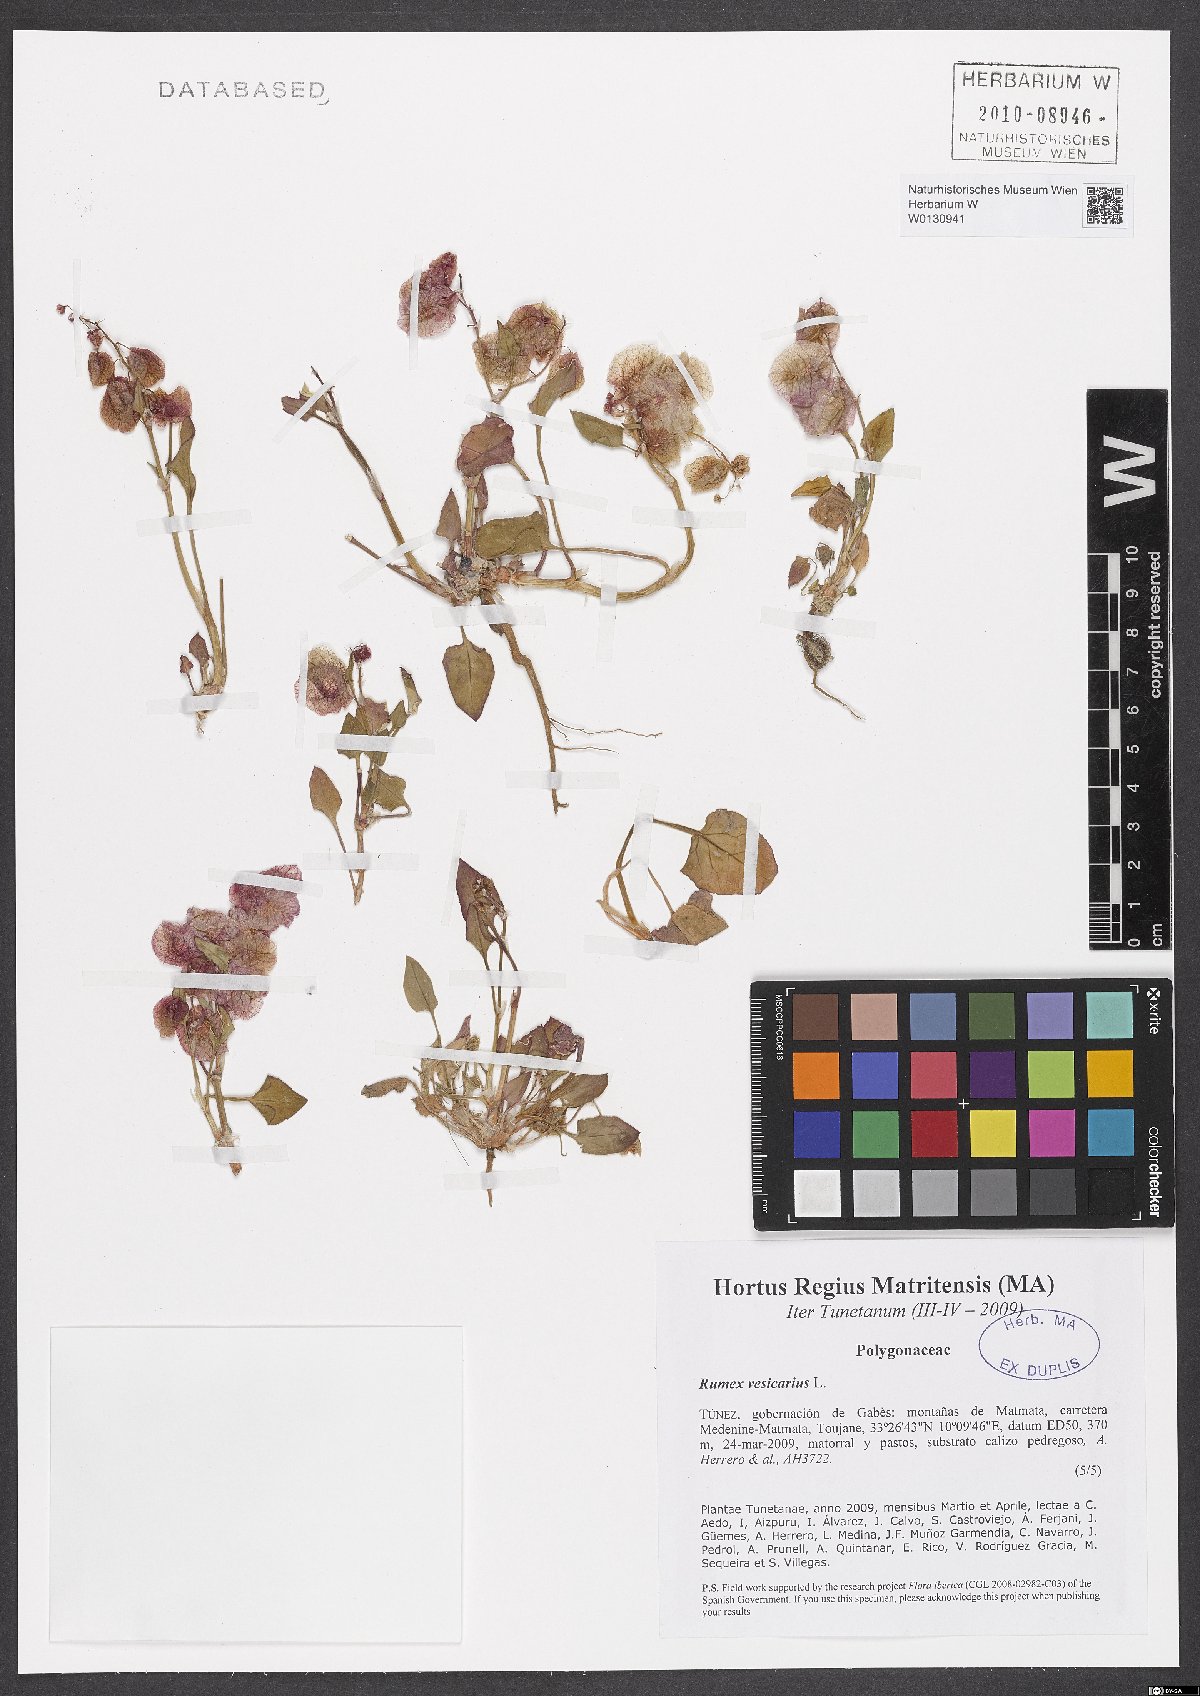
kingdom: Plantae
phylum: Tracheophyta
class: Magnoliopsida
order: Caryophyllales
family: Polygonaceae
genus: Rumex
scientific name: Rumex vesicarius
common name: Bladder dock
